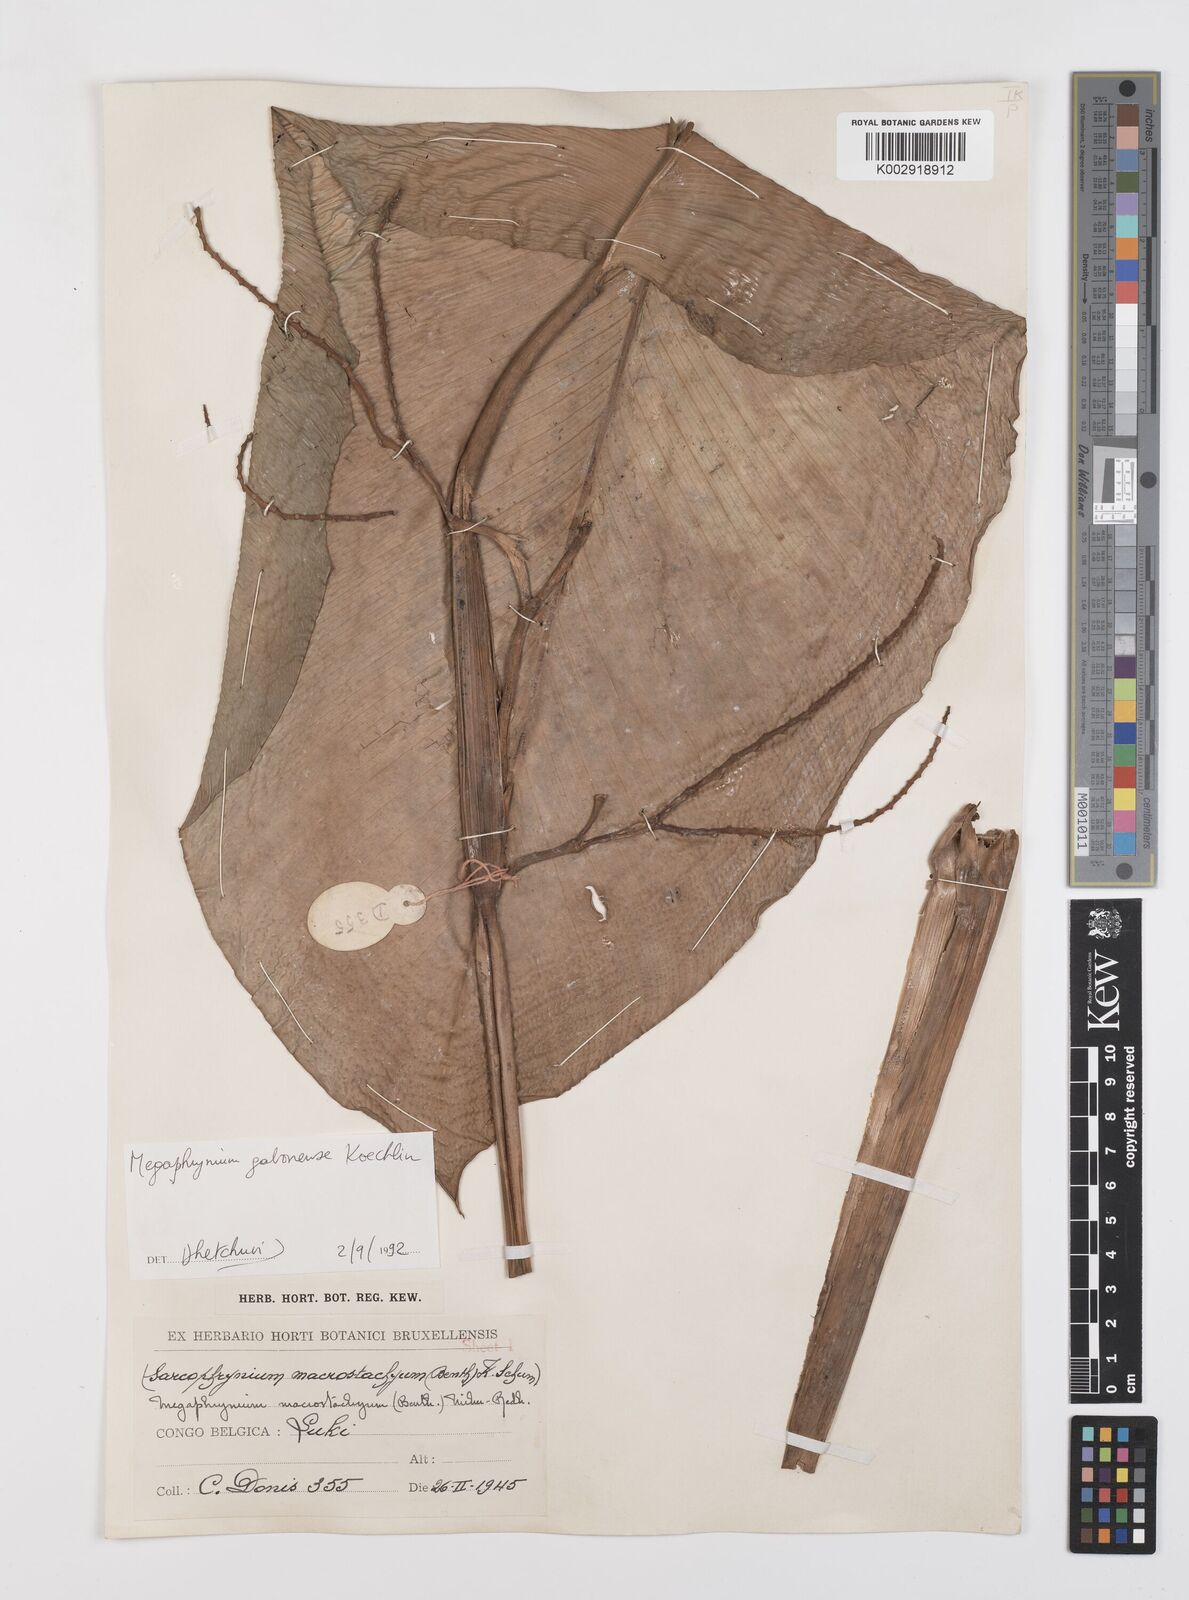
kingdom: Plantae
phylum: Tracheophyta
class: Liliopsida
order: Zingiberales
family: Marantaceae
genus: Megaphrynium
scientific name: Megaphrynium gabonense
